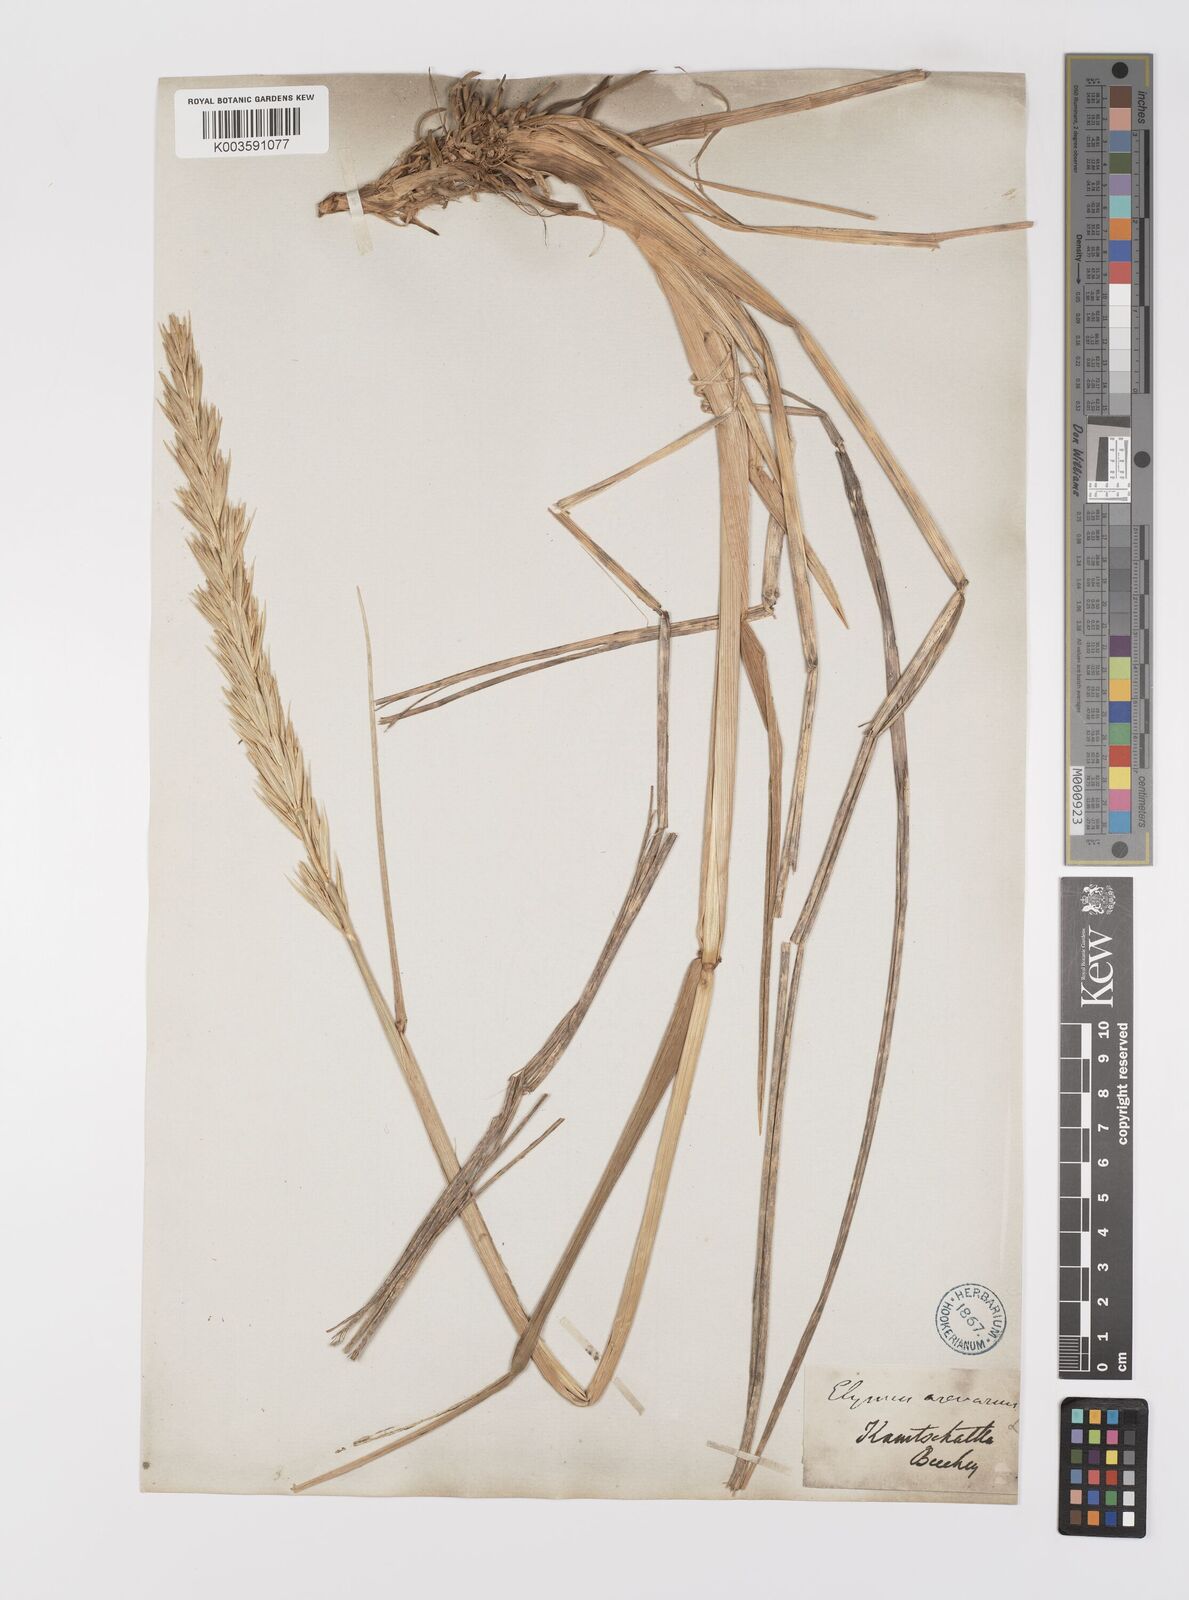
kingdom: Plantae
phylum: Tracheophyta
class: Liliopsida
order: Poales
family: Poaceae
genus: Leymus
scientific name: Leymus mollis
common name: American dune grass
